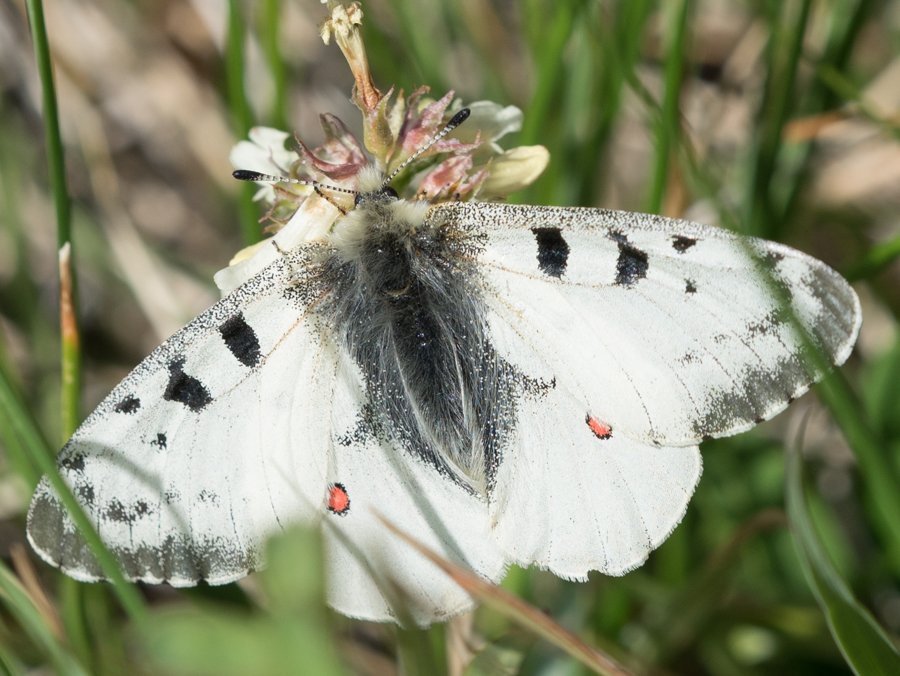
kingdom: Animalia
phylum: Arthropoda
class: Insecta
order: Lepidoptera
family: Papilionidae
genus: Parnassius
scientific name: Parnassius smintheus
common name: Rocky Mountain Parnassian
